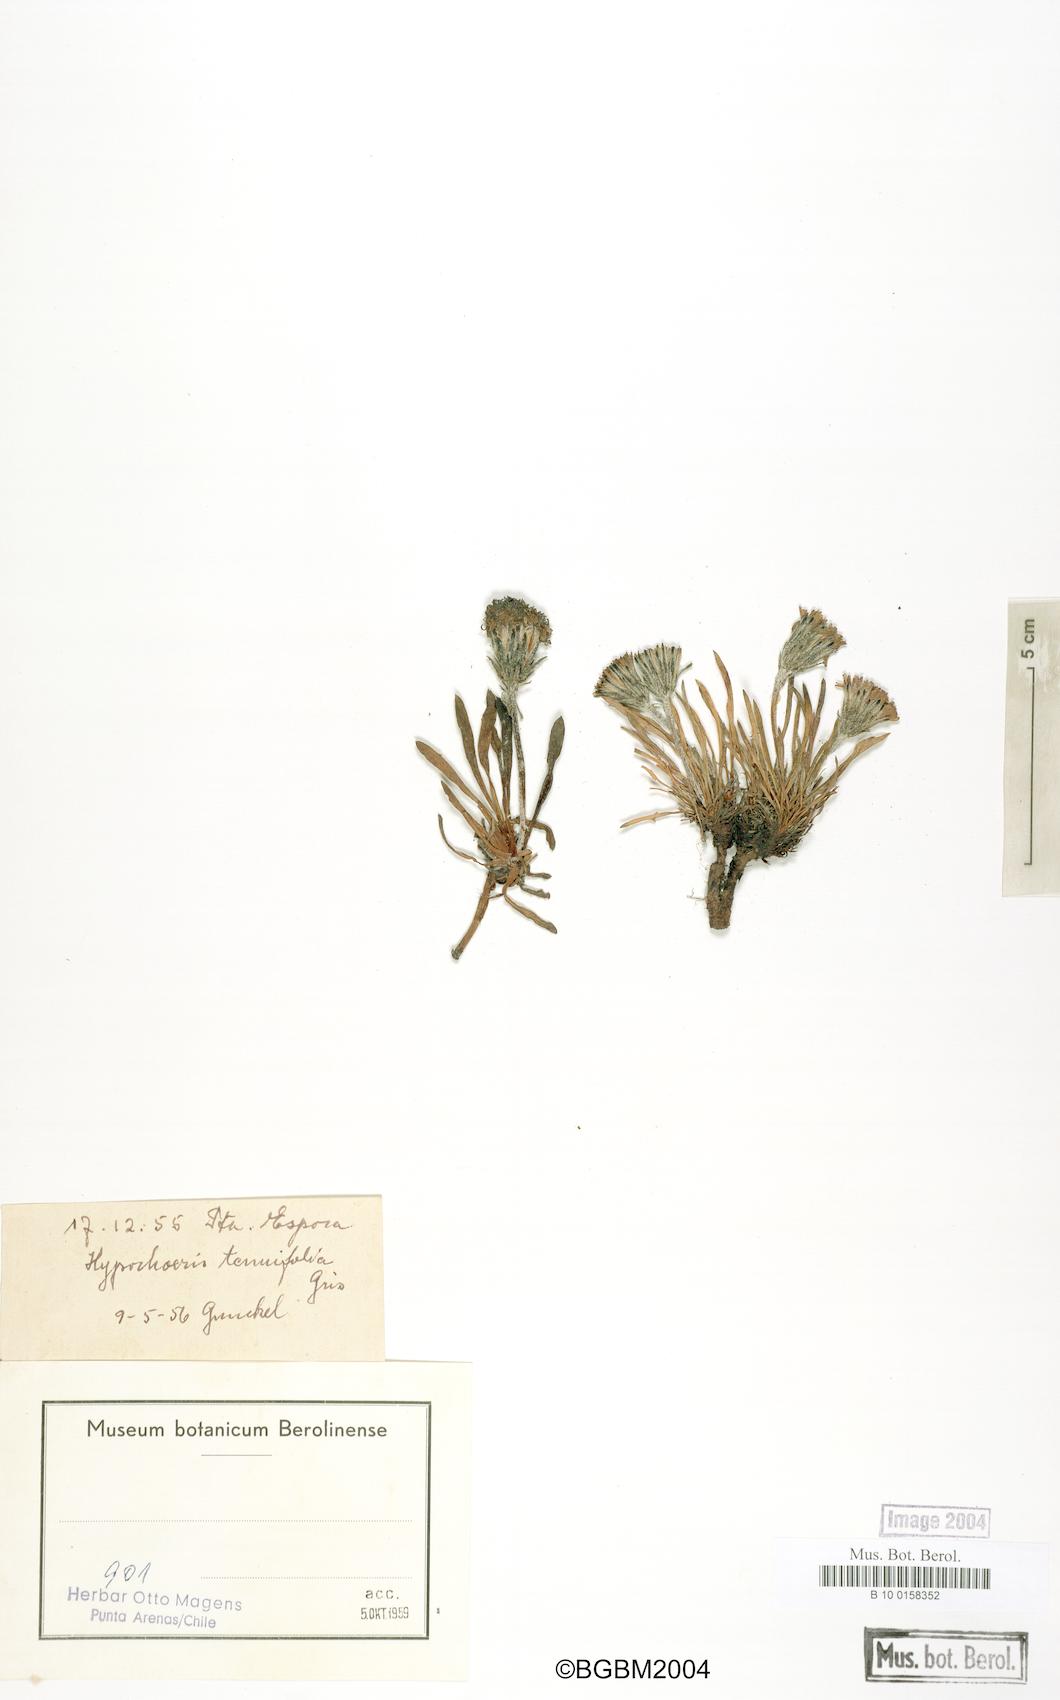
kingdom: Plantae
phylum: Tracheophyta
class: Magnoliopsida
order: Asterales
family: Asteraceae
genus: Hypochaeris
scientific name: Hypochaeris tenuifolia
